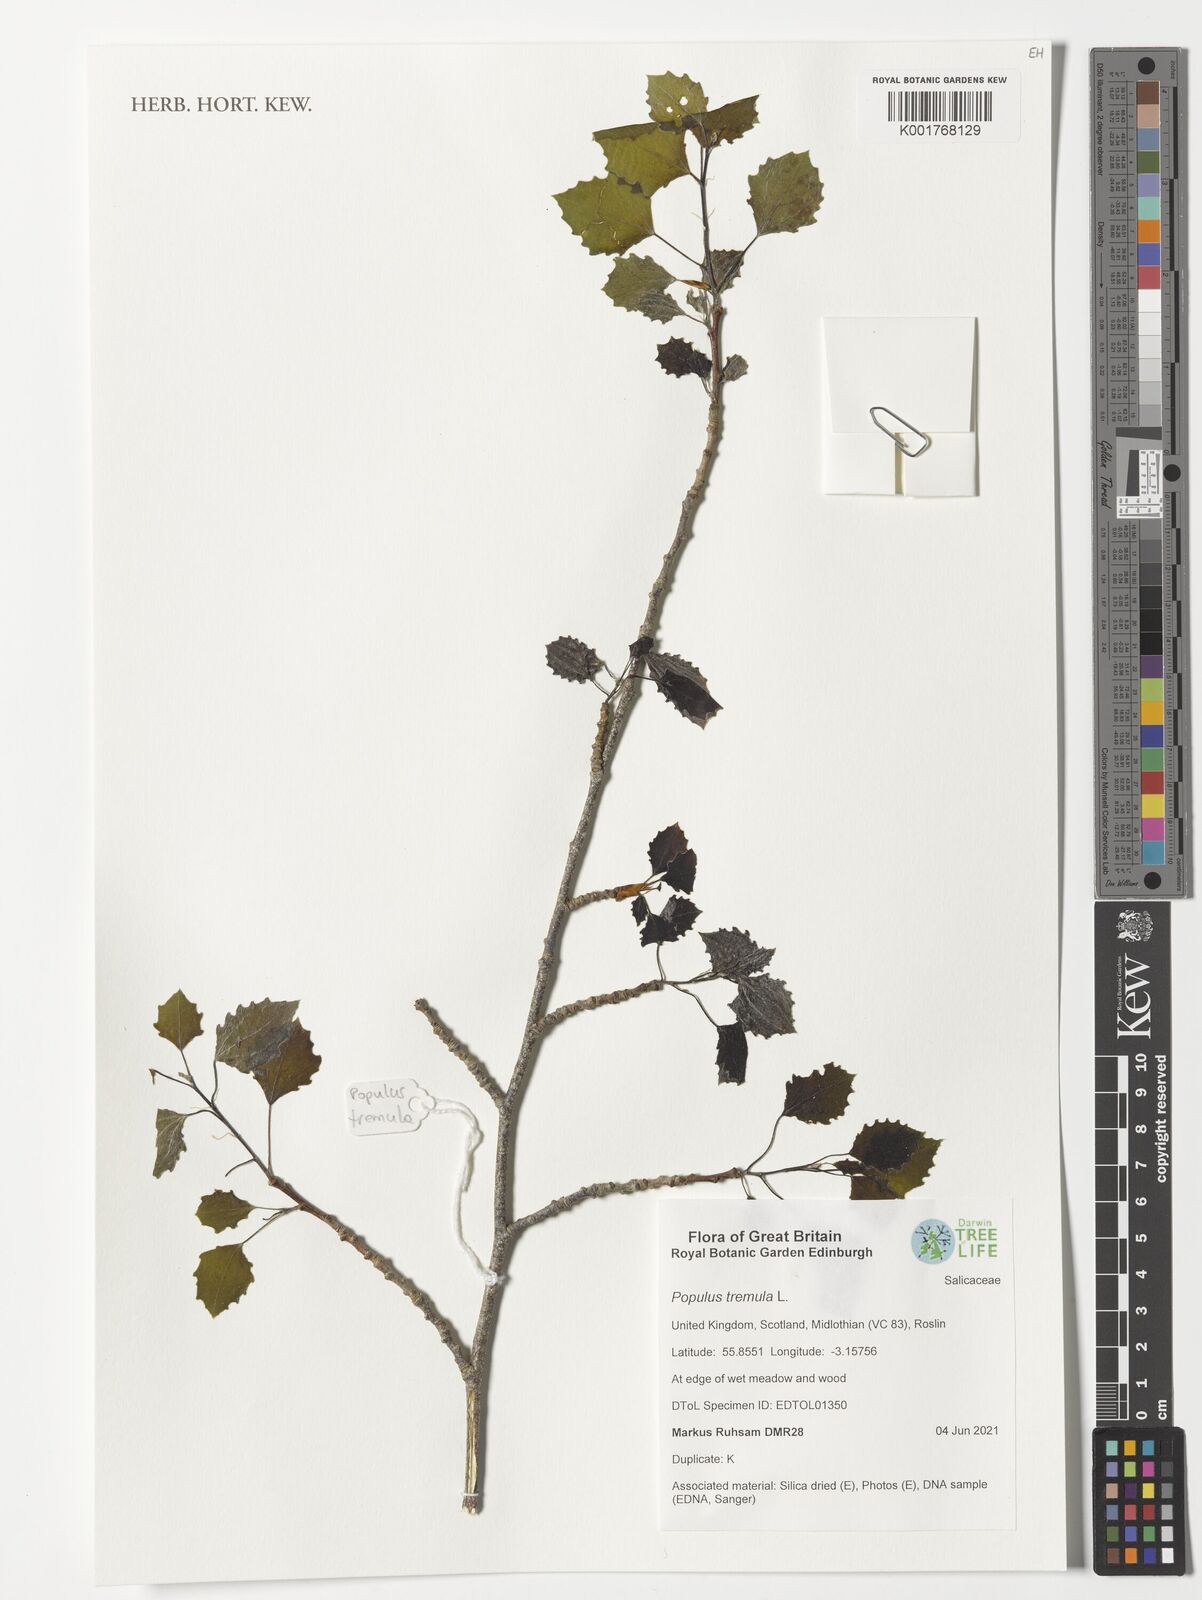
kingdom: Plantae
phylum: Tracheophyta
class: Magnoliopsida
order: Malpighiales
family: Salicaceae
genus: Populus
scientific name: Populus tremula
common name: European aspen
